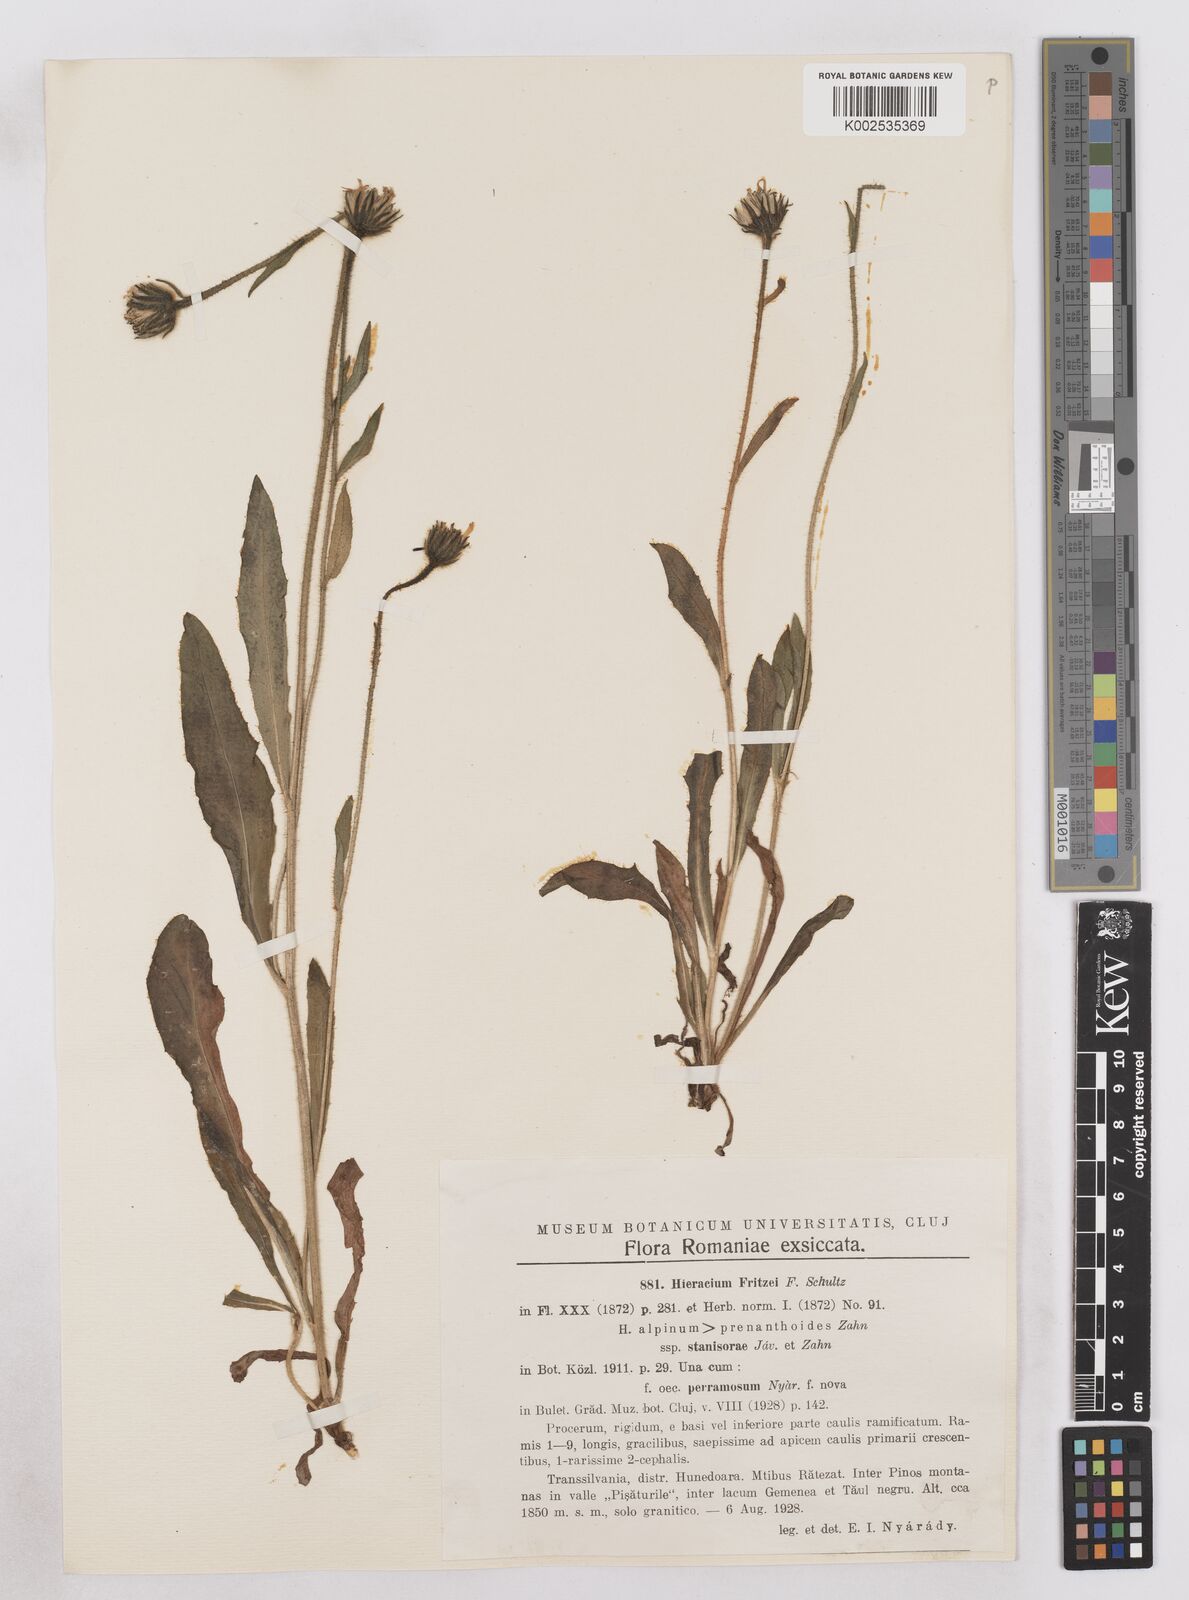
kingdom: Plantae
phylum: Tracheophyta
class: Magnoliopsida
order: Asterales
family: Asteraceae
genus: Hieracium
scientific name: Hieracium fritzei
